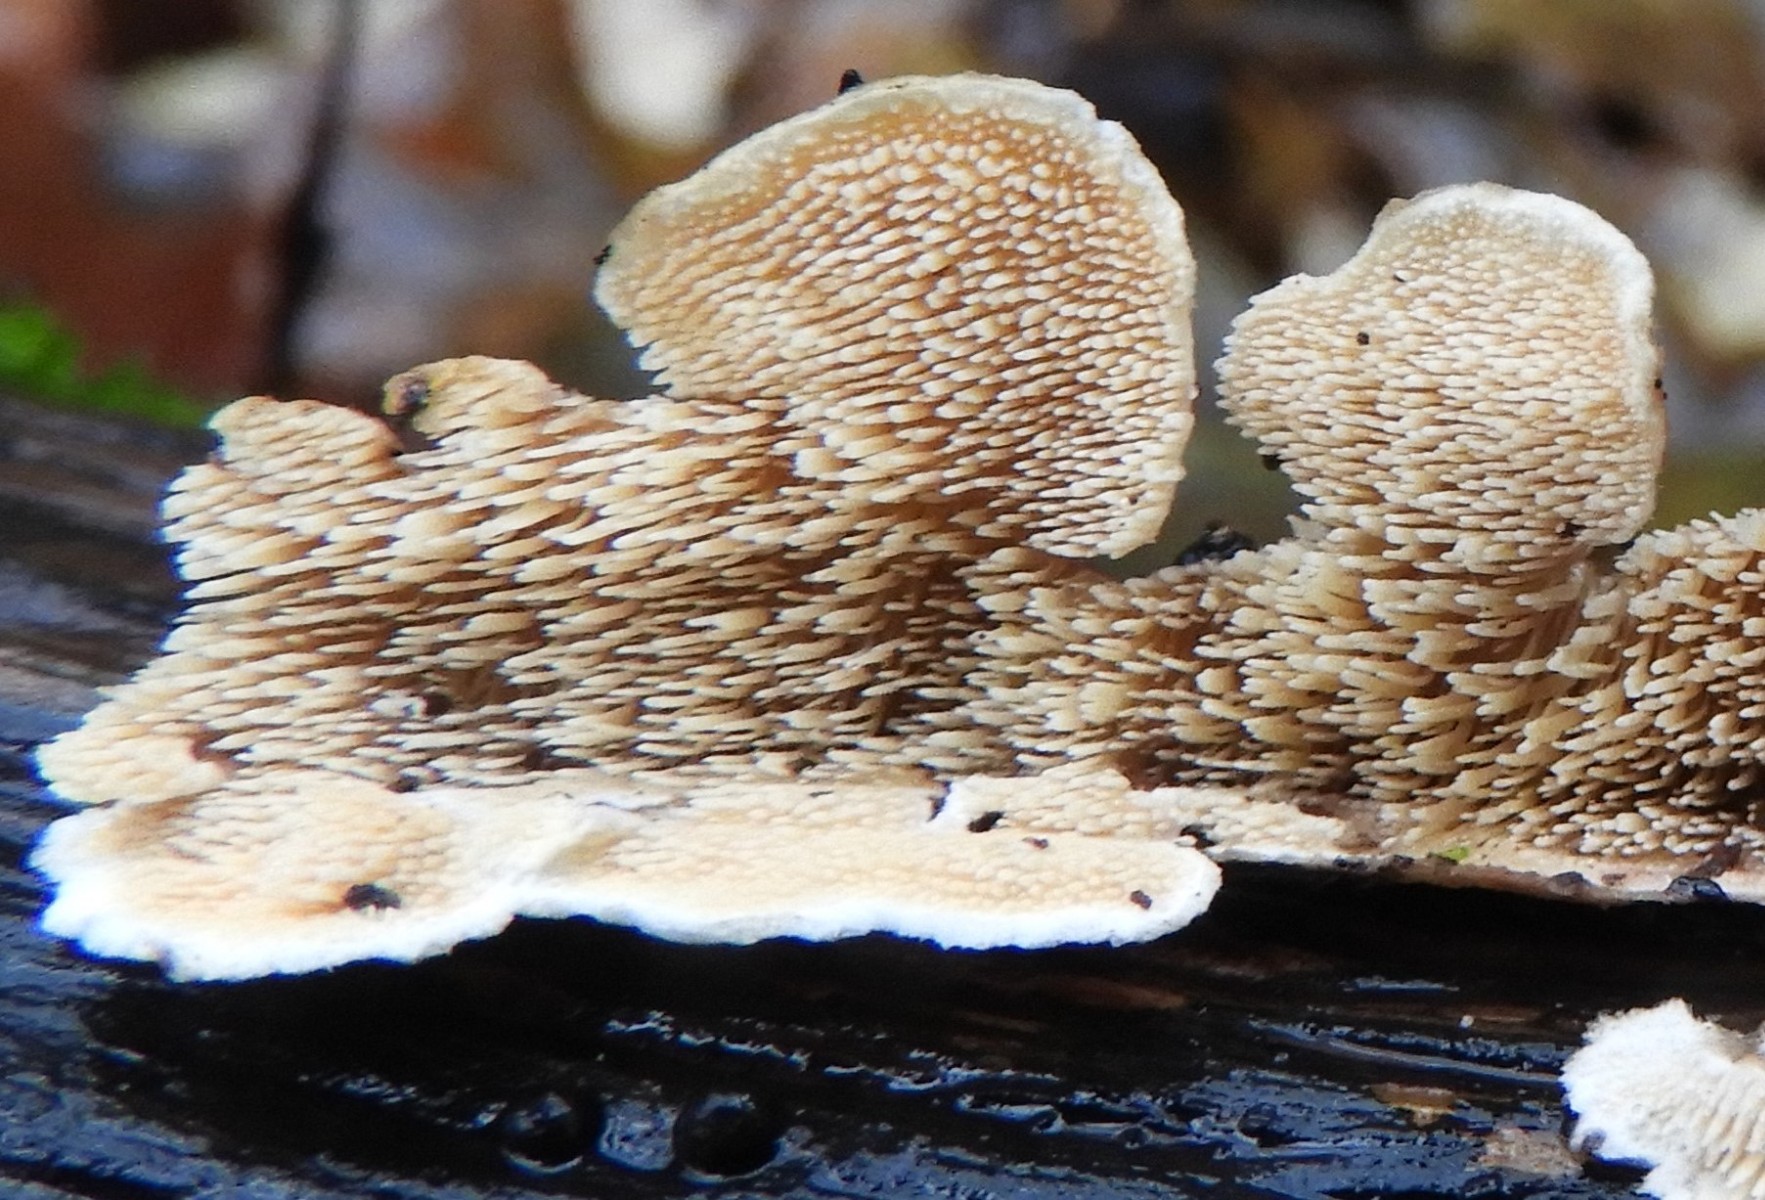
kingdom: Fungi
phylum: Basidiomycota
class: Agaricomycetes
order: Polyporales
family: Steccherinaceae
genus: Steccherinum
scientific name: Steccherinum bourdotii
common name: hat-skønpig
